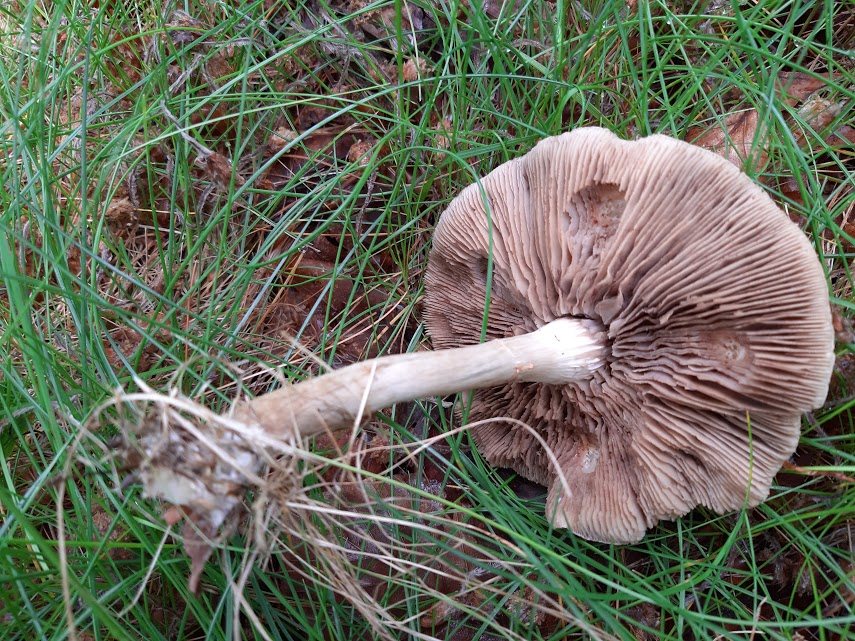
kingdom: Fungi
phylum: Basidiomycota
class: Agaricomycetes
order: Agaricales
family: Strophariaceae
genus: Agrocybe
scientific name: Agrocybe
